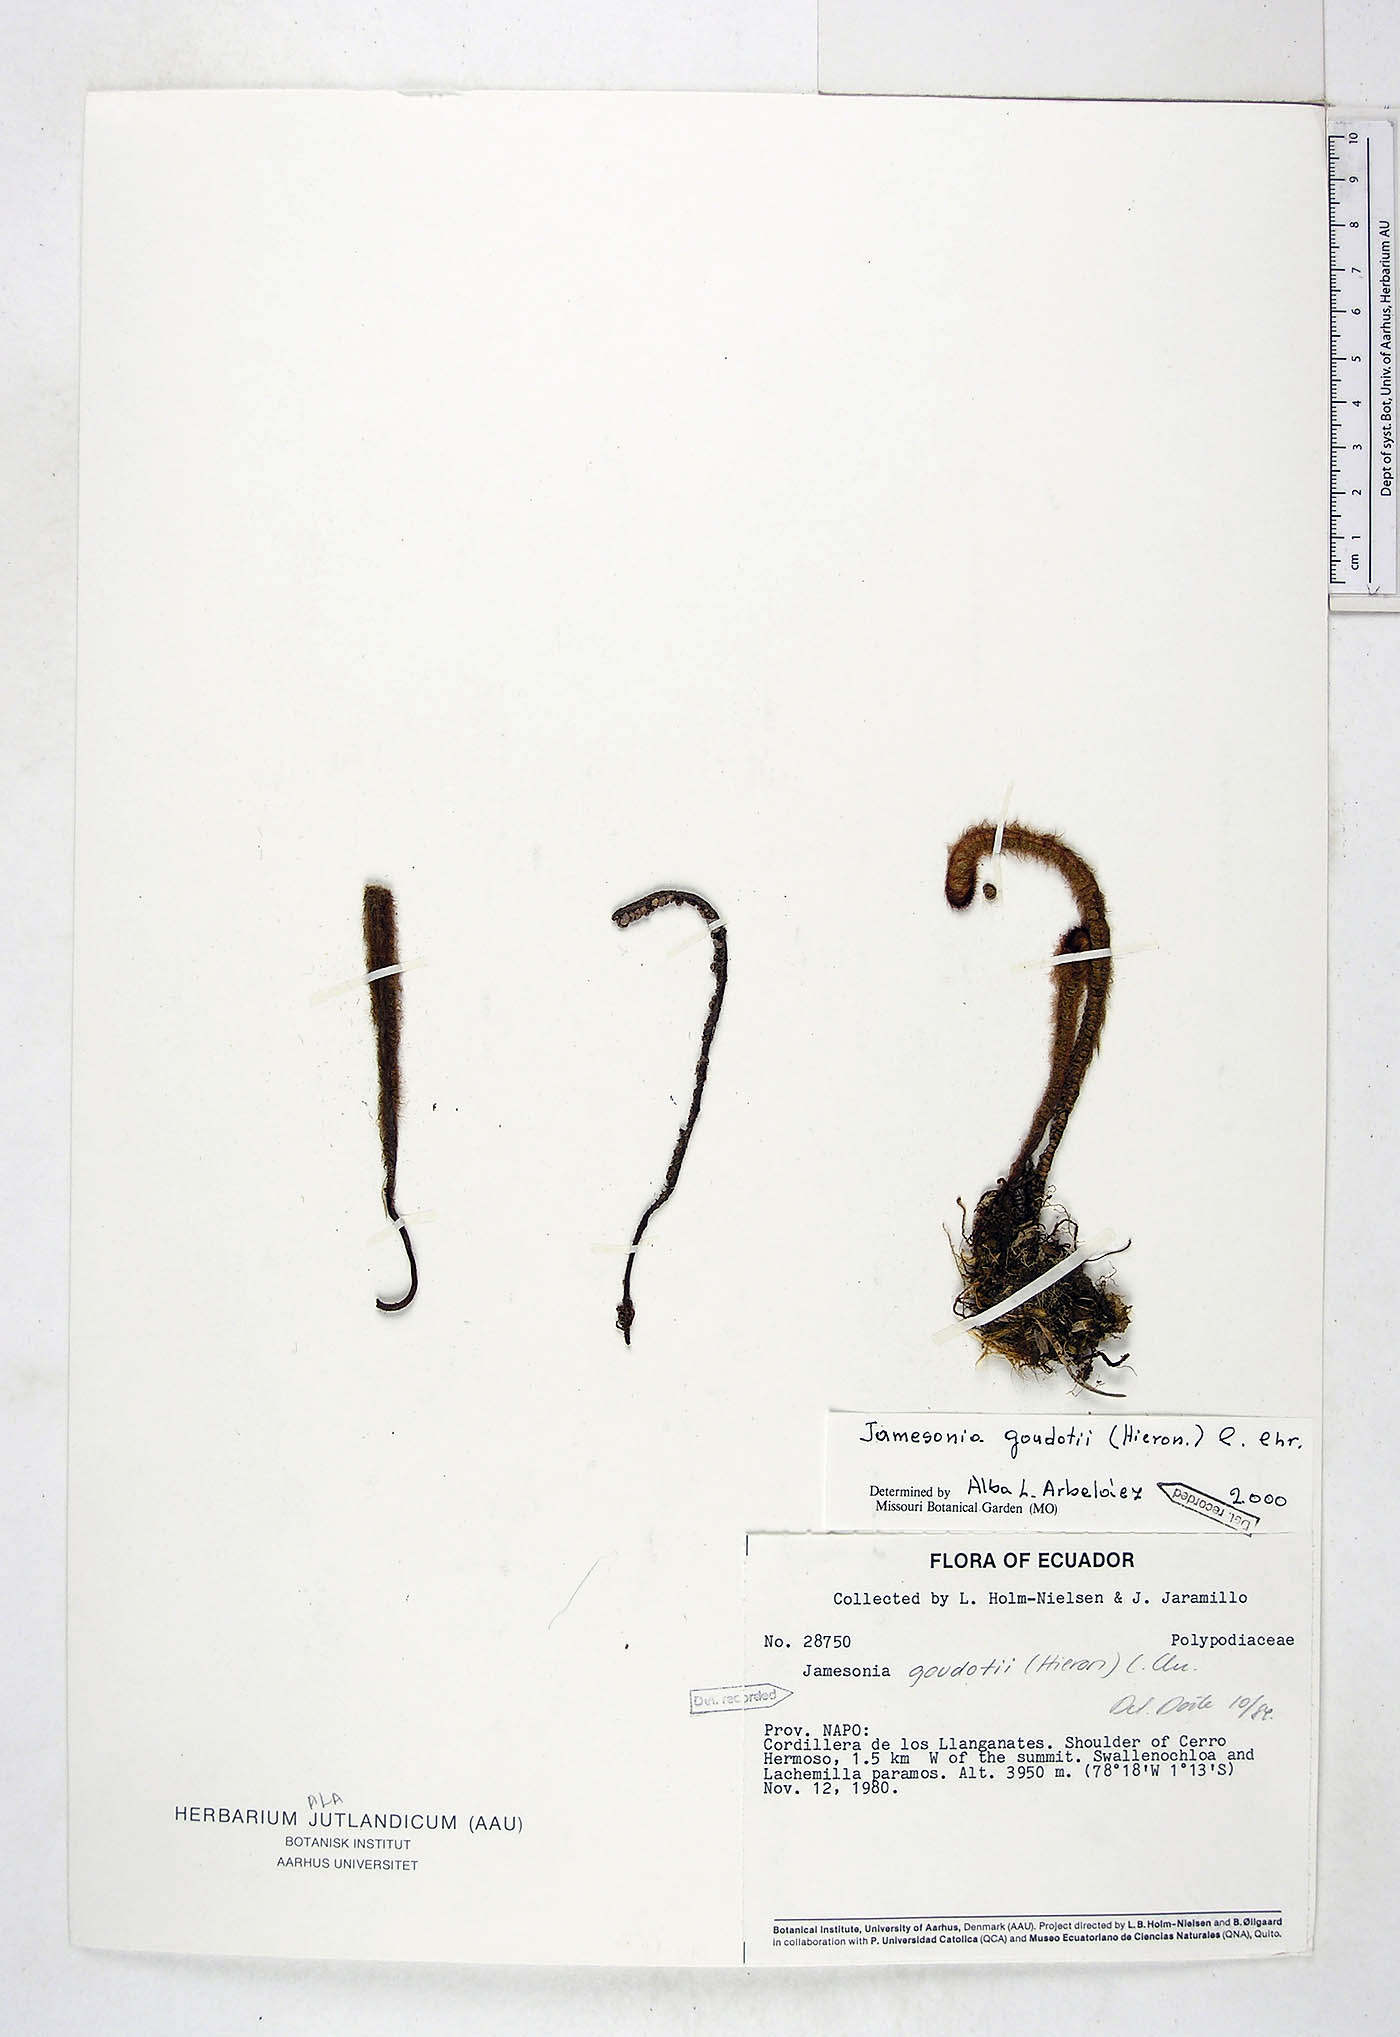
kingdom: Plantae
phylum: Tracheophyta
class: Polypodiopsida
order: Polypodiales
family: Pteridaceae
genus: Jamesonia
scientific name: Jamesonia goudotii
